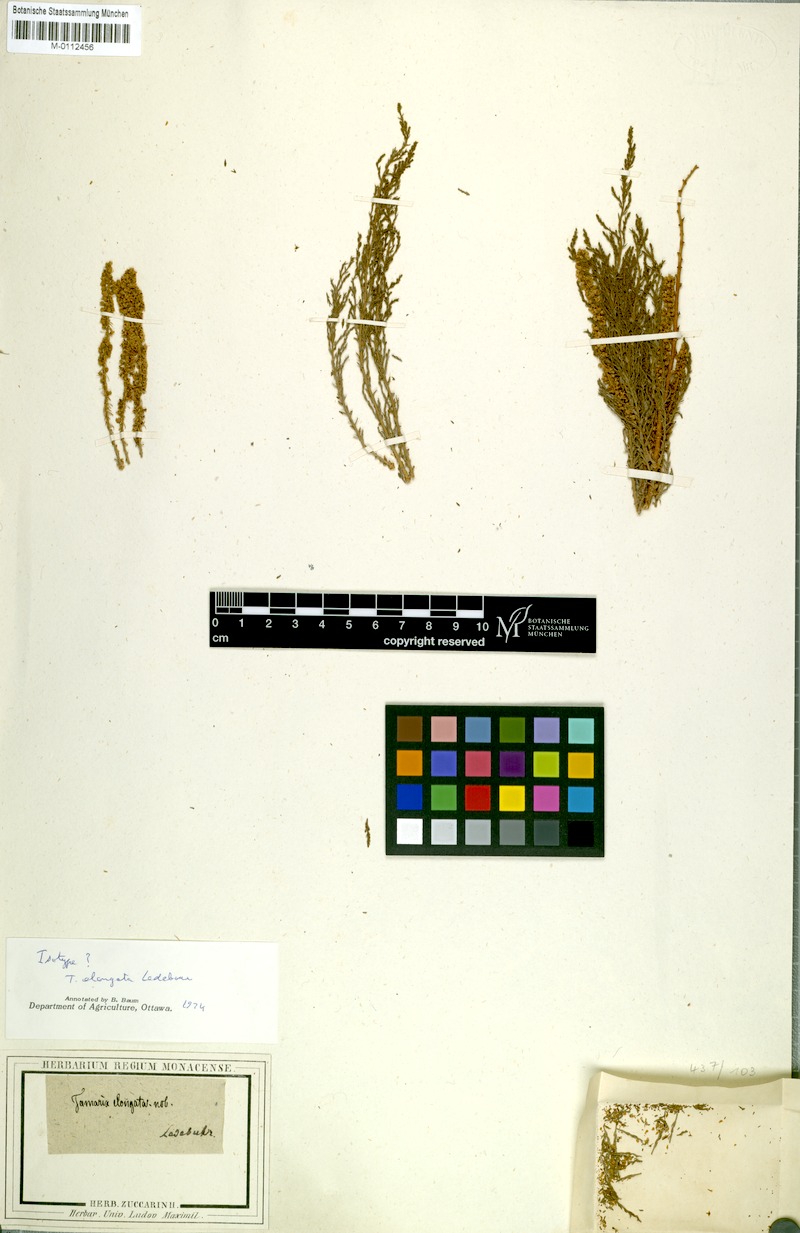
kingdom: Plantae
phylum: Tracheophyta
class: Magnoliopsida
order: Caryophyllales
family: Tamaricaceae
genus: Tamarix
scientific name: Tamarix elongata
